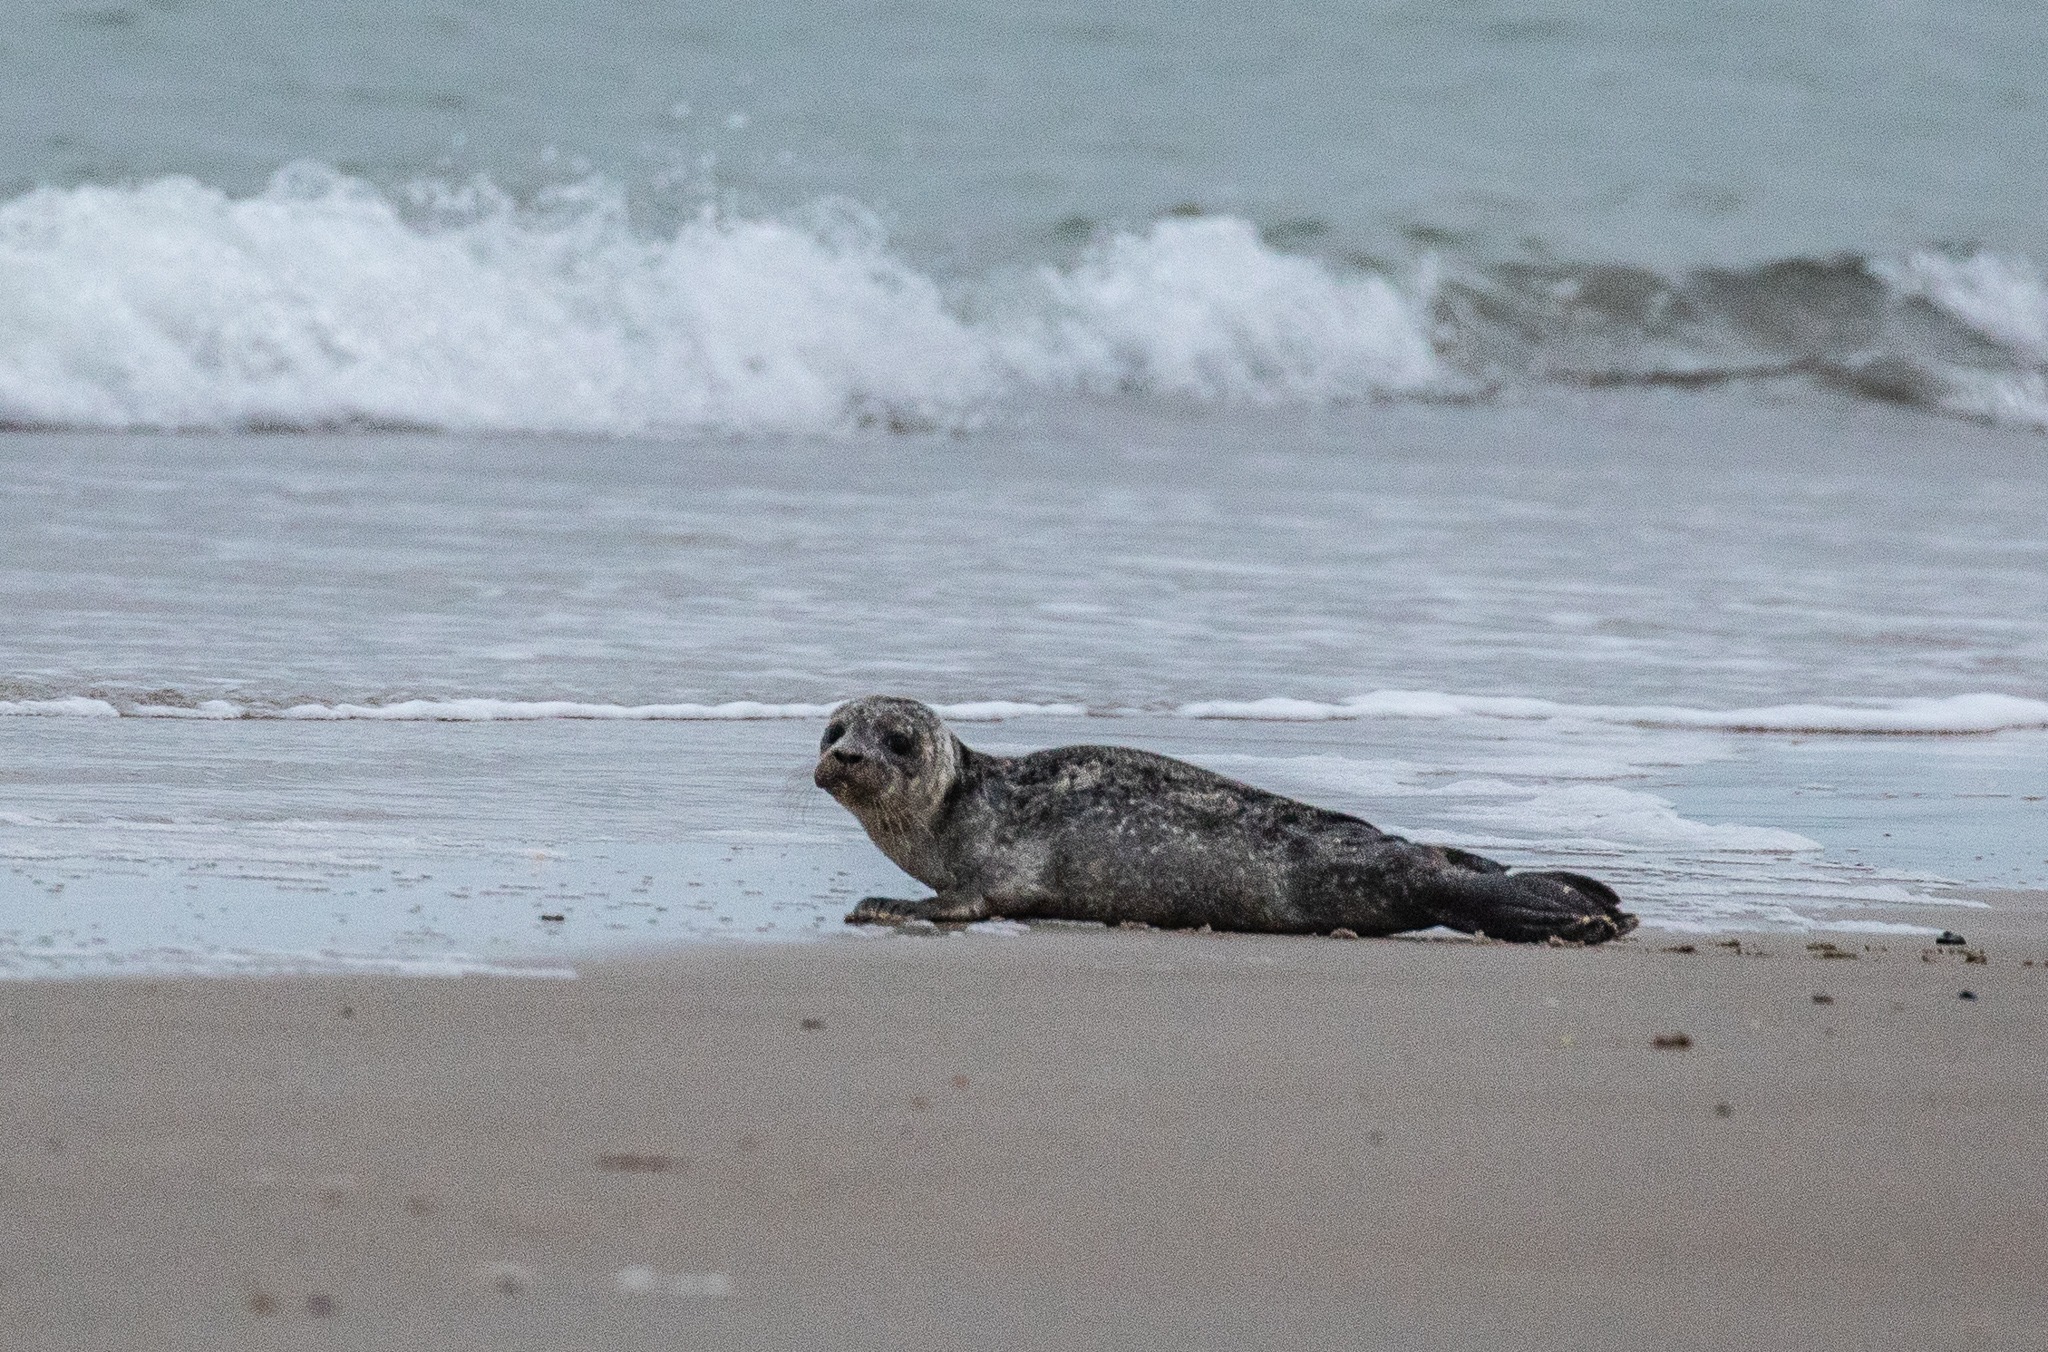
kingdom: Animalia
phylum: Chordata
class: Mammalia
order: Carnivora
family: Phocidae
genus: Phoca
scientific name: Phoca vitulina
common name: Spættet sæl
